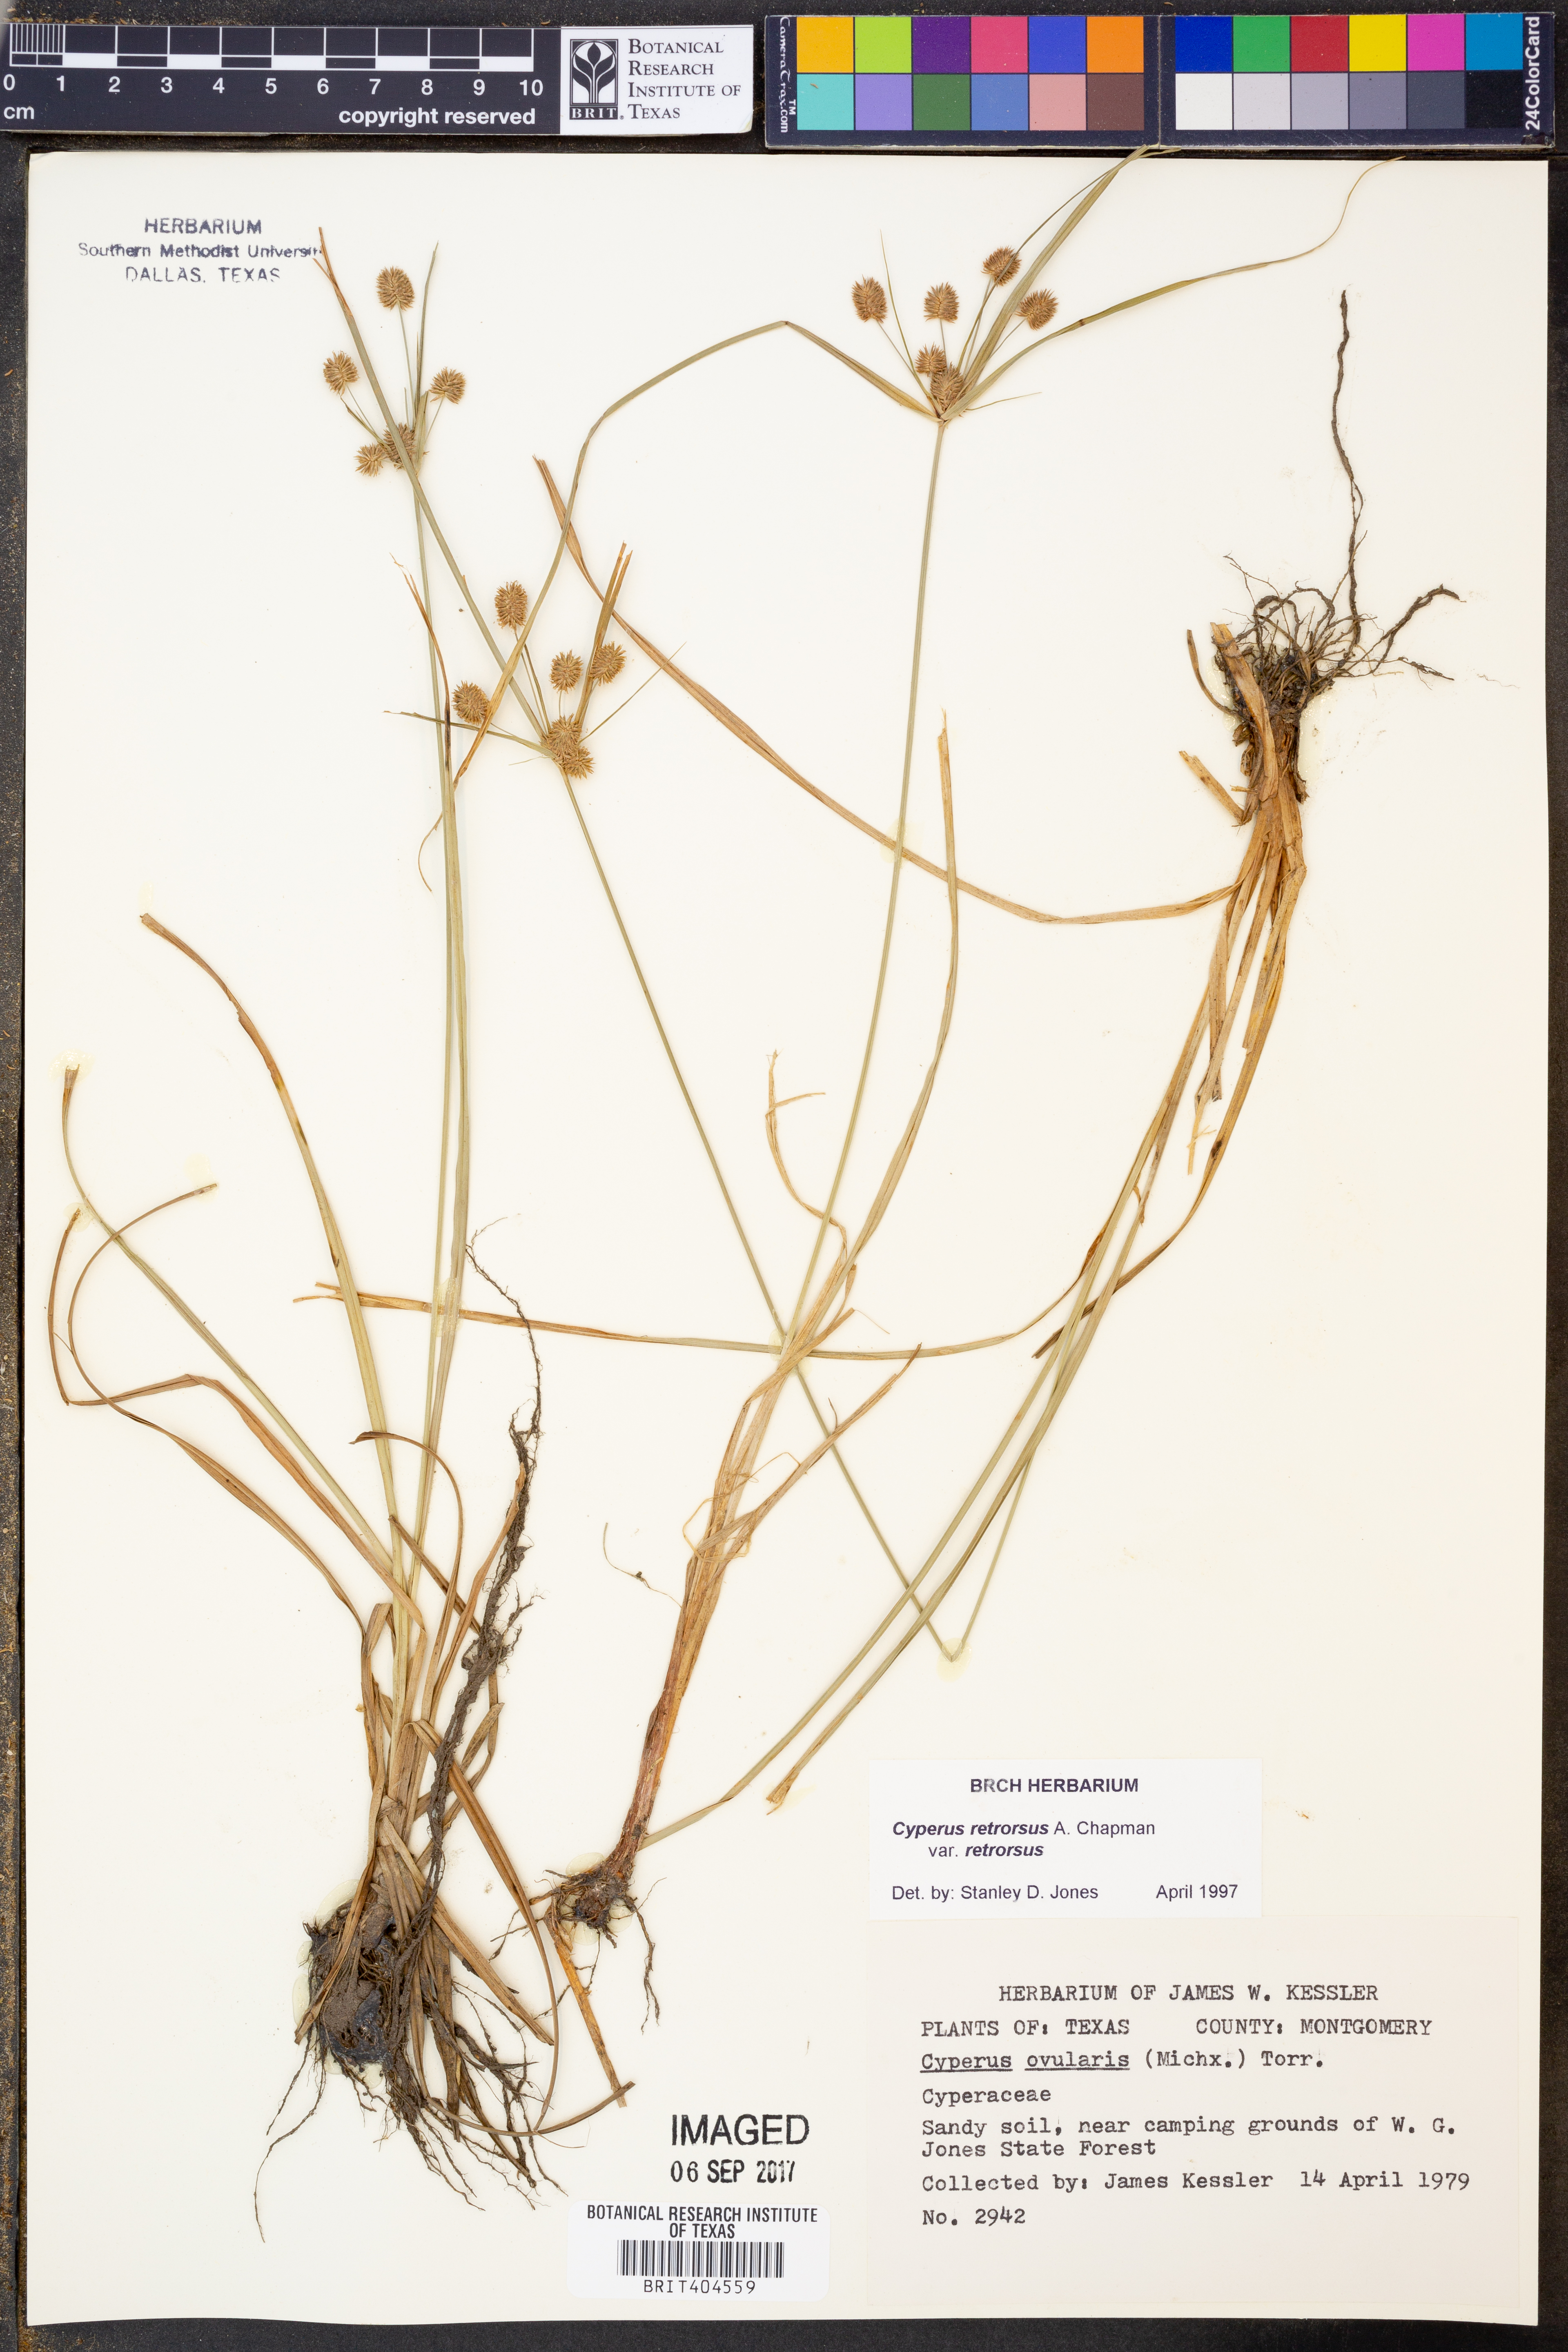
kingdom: Plantae
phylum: Tracheophyta
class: Liliopsida
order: Poales
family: Cyperaceae
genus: Cyperus
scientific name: Cyperus retrorsus
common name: Pinebarren flat sedge
